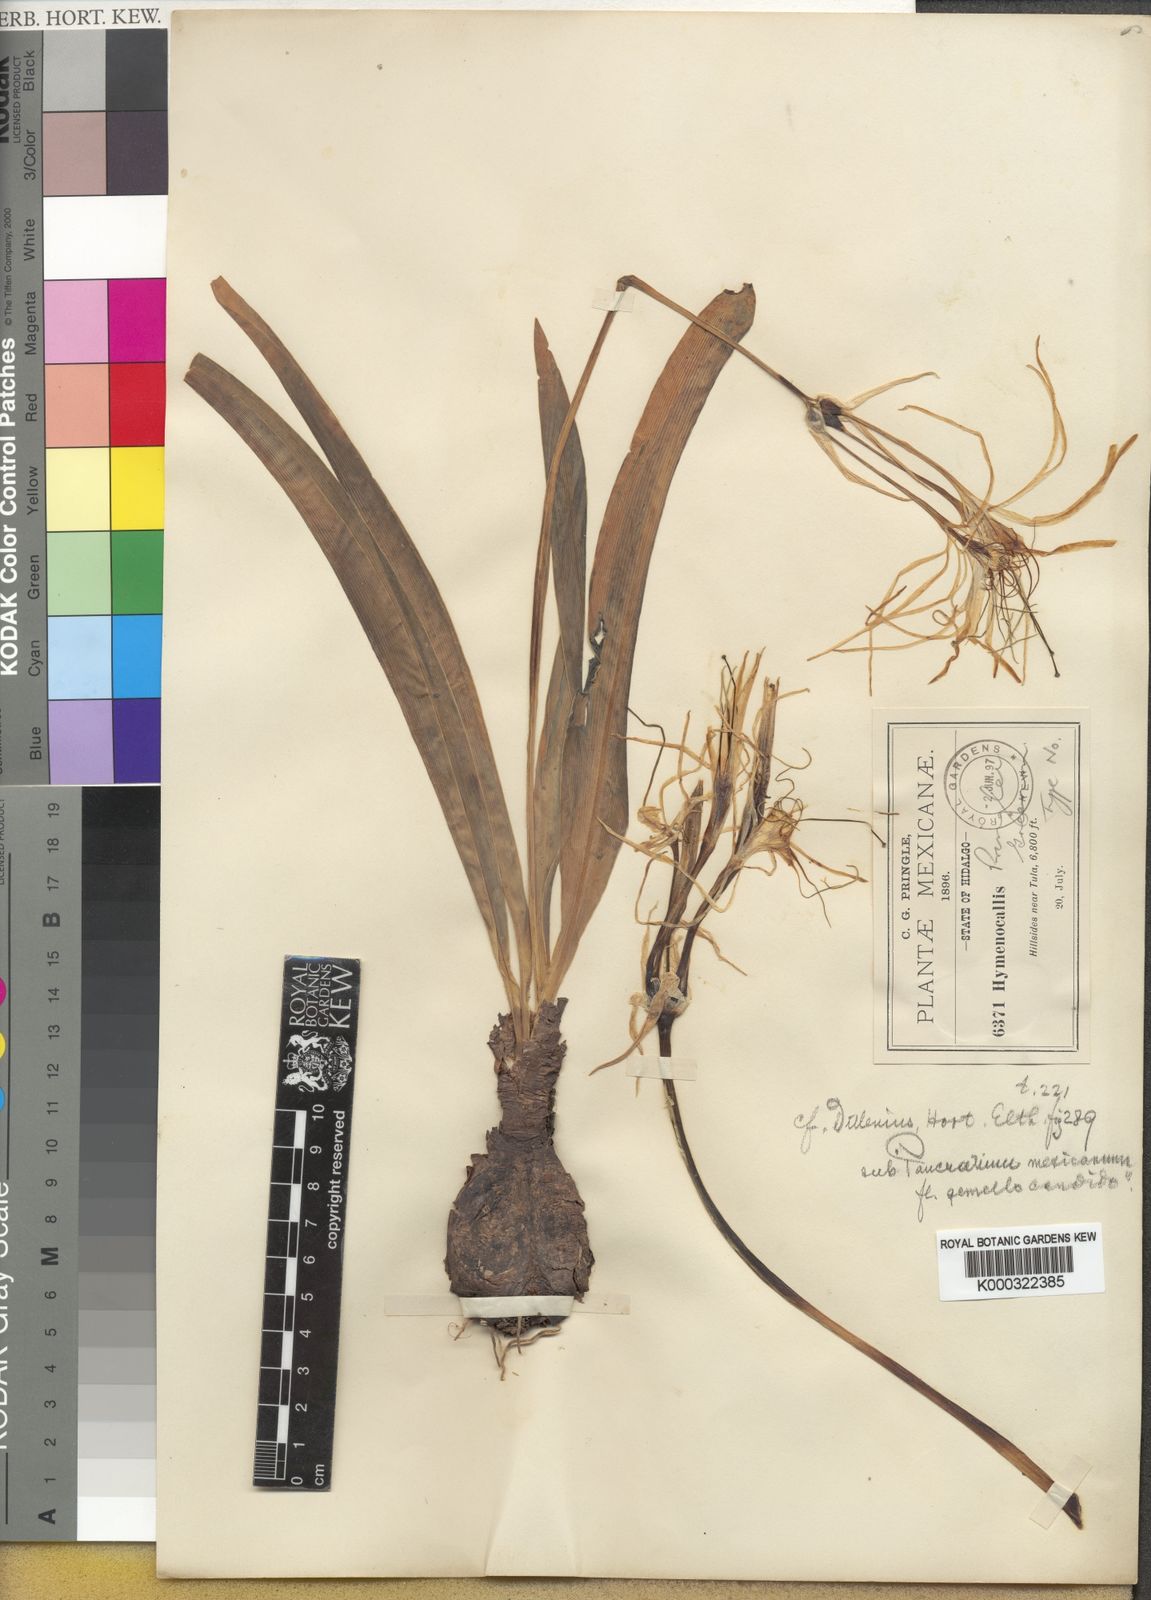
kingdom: Plantae
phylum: Tracheophyta
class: Liliopsida
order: Asparagales
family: Amaryllidaceae
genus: Hymenocallis
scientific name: Hymenocallis rotata
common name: Spring-run spider-lily
